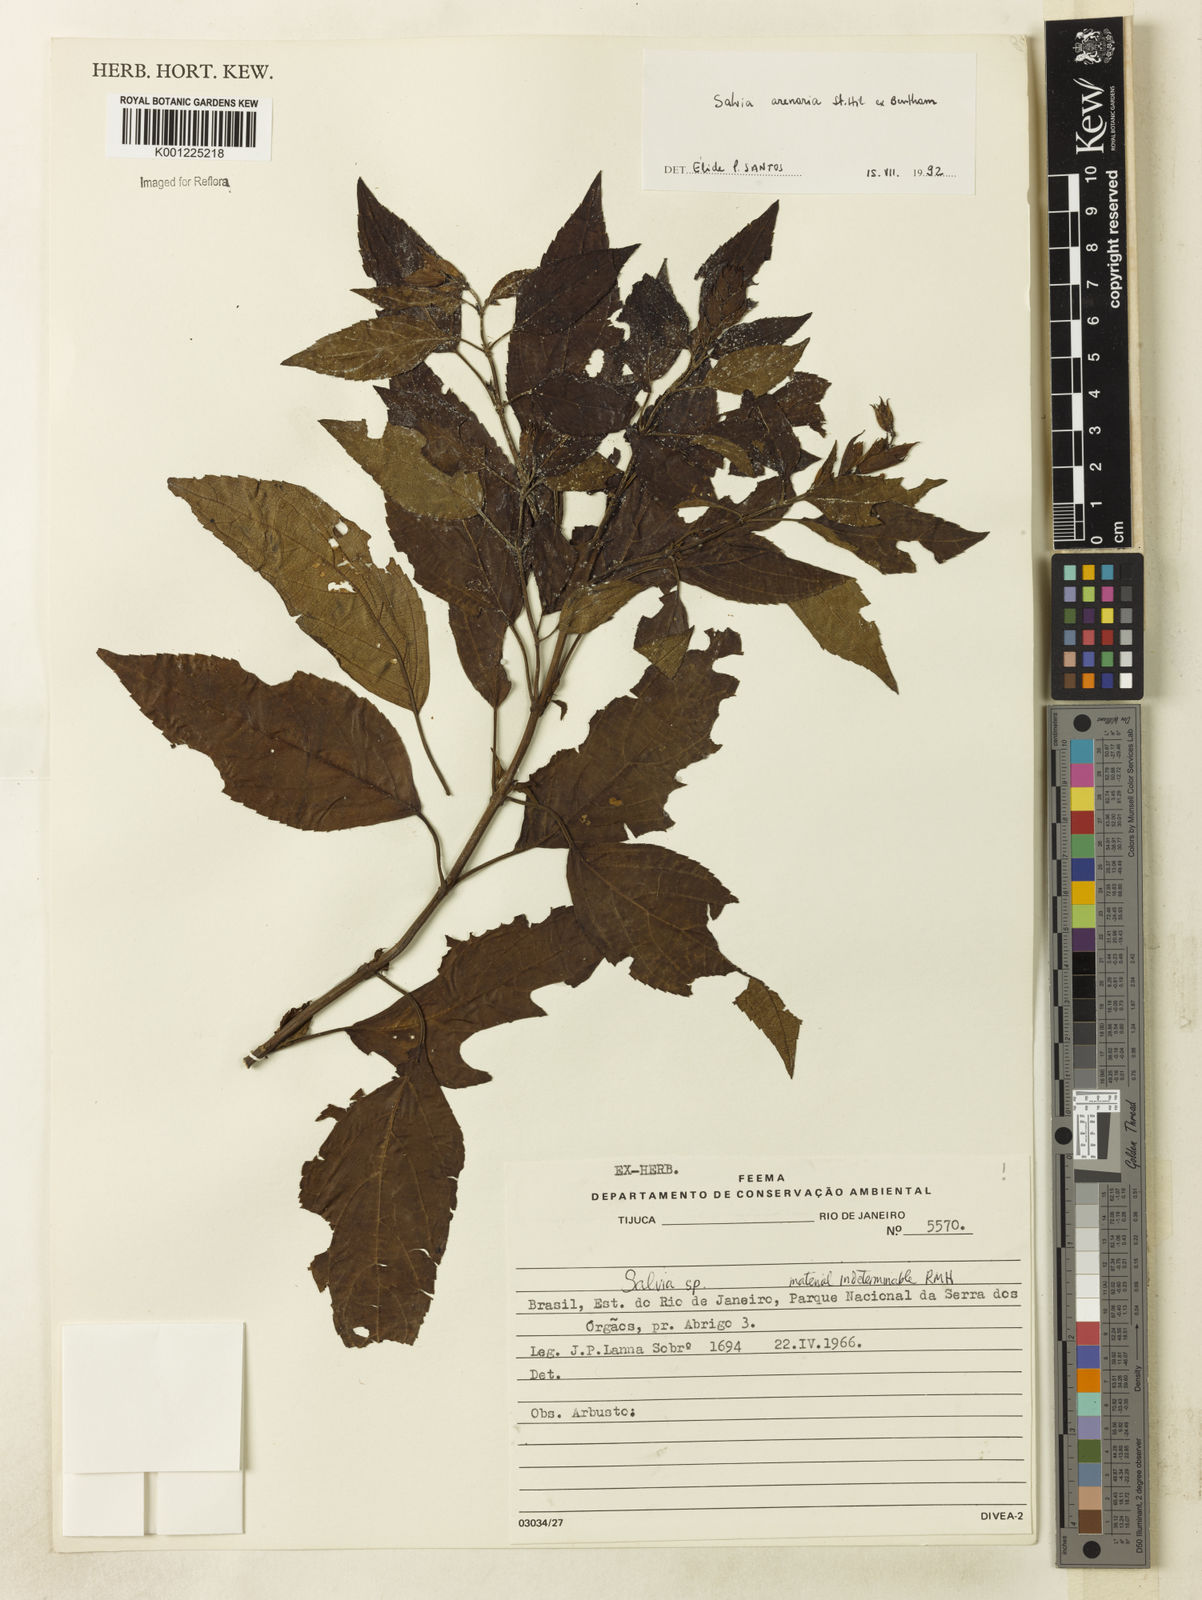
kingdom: Plantae
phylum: Tracheophyta
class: Magnoliopsida
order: Lamiales
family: Lamiaceae
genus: Salvia
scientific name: Salvia arenaria
